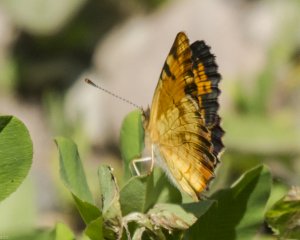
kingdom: Animalia
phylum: Arthropoda
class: Insecta
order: Lepidoptera
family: Nymphalidae
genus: Phyciodes
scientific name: Phyciodes tharos
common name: Northern Crescent
